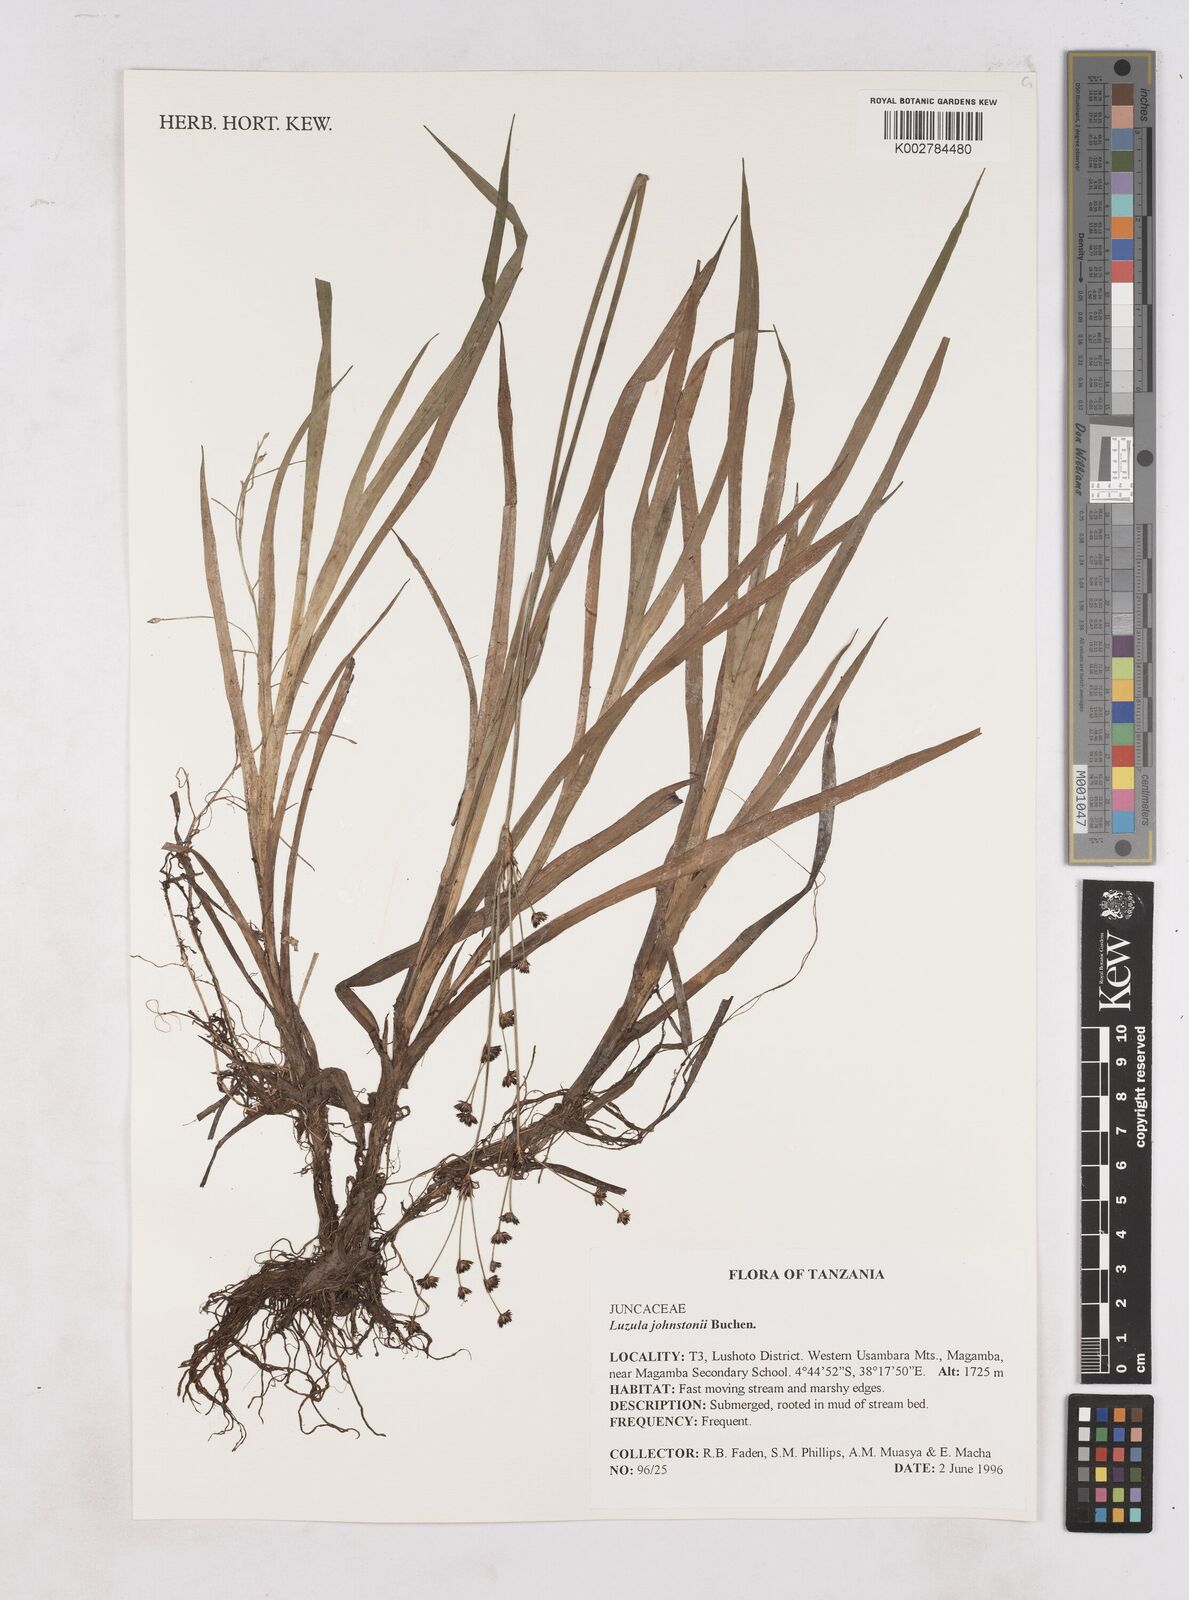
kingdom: Plantae
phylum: Tracheophyta
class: Liliopsida
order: Poales
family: Juncaceae
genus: Luzula
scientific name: Luzula johnstonii
